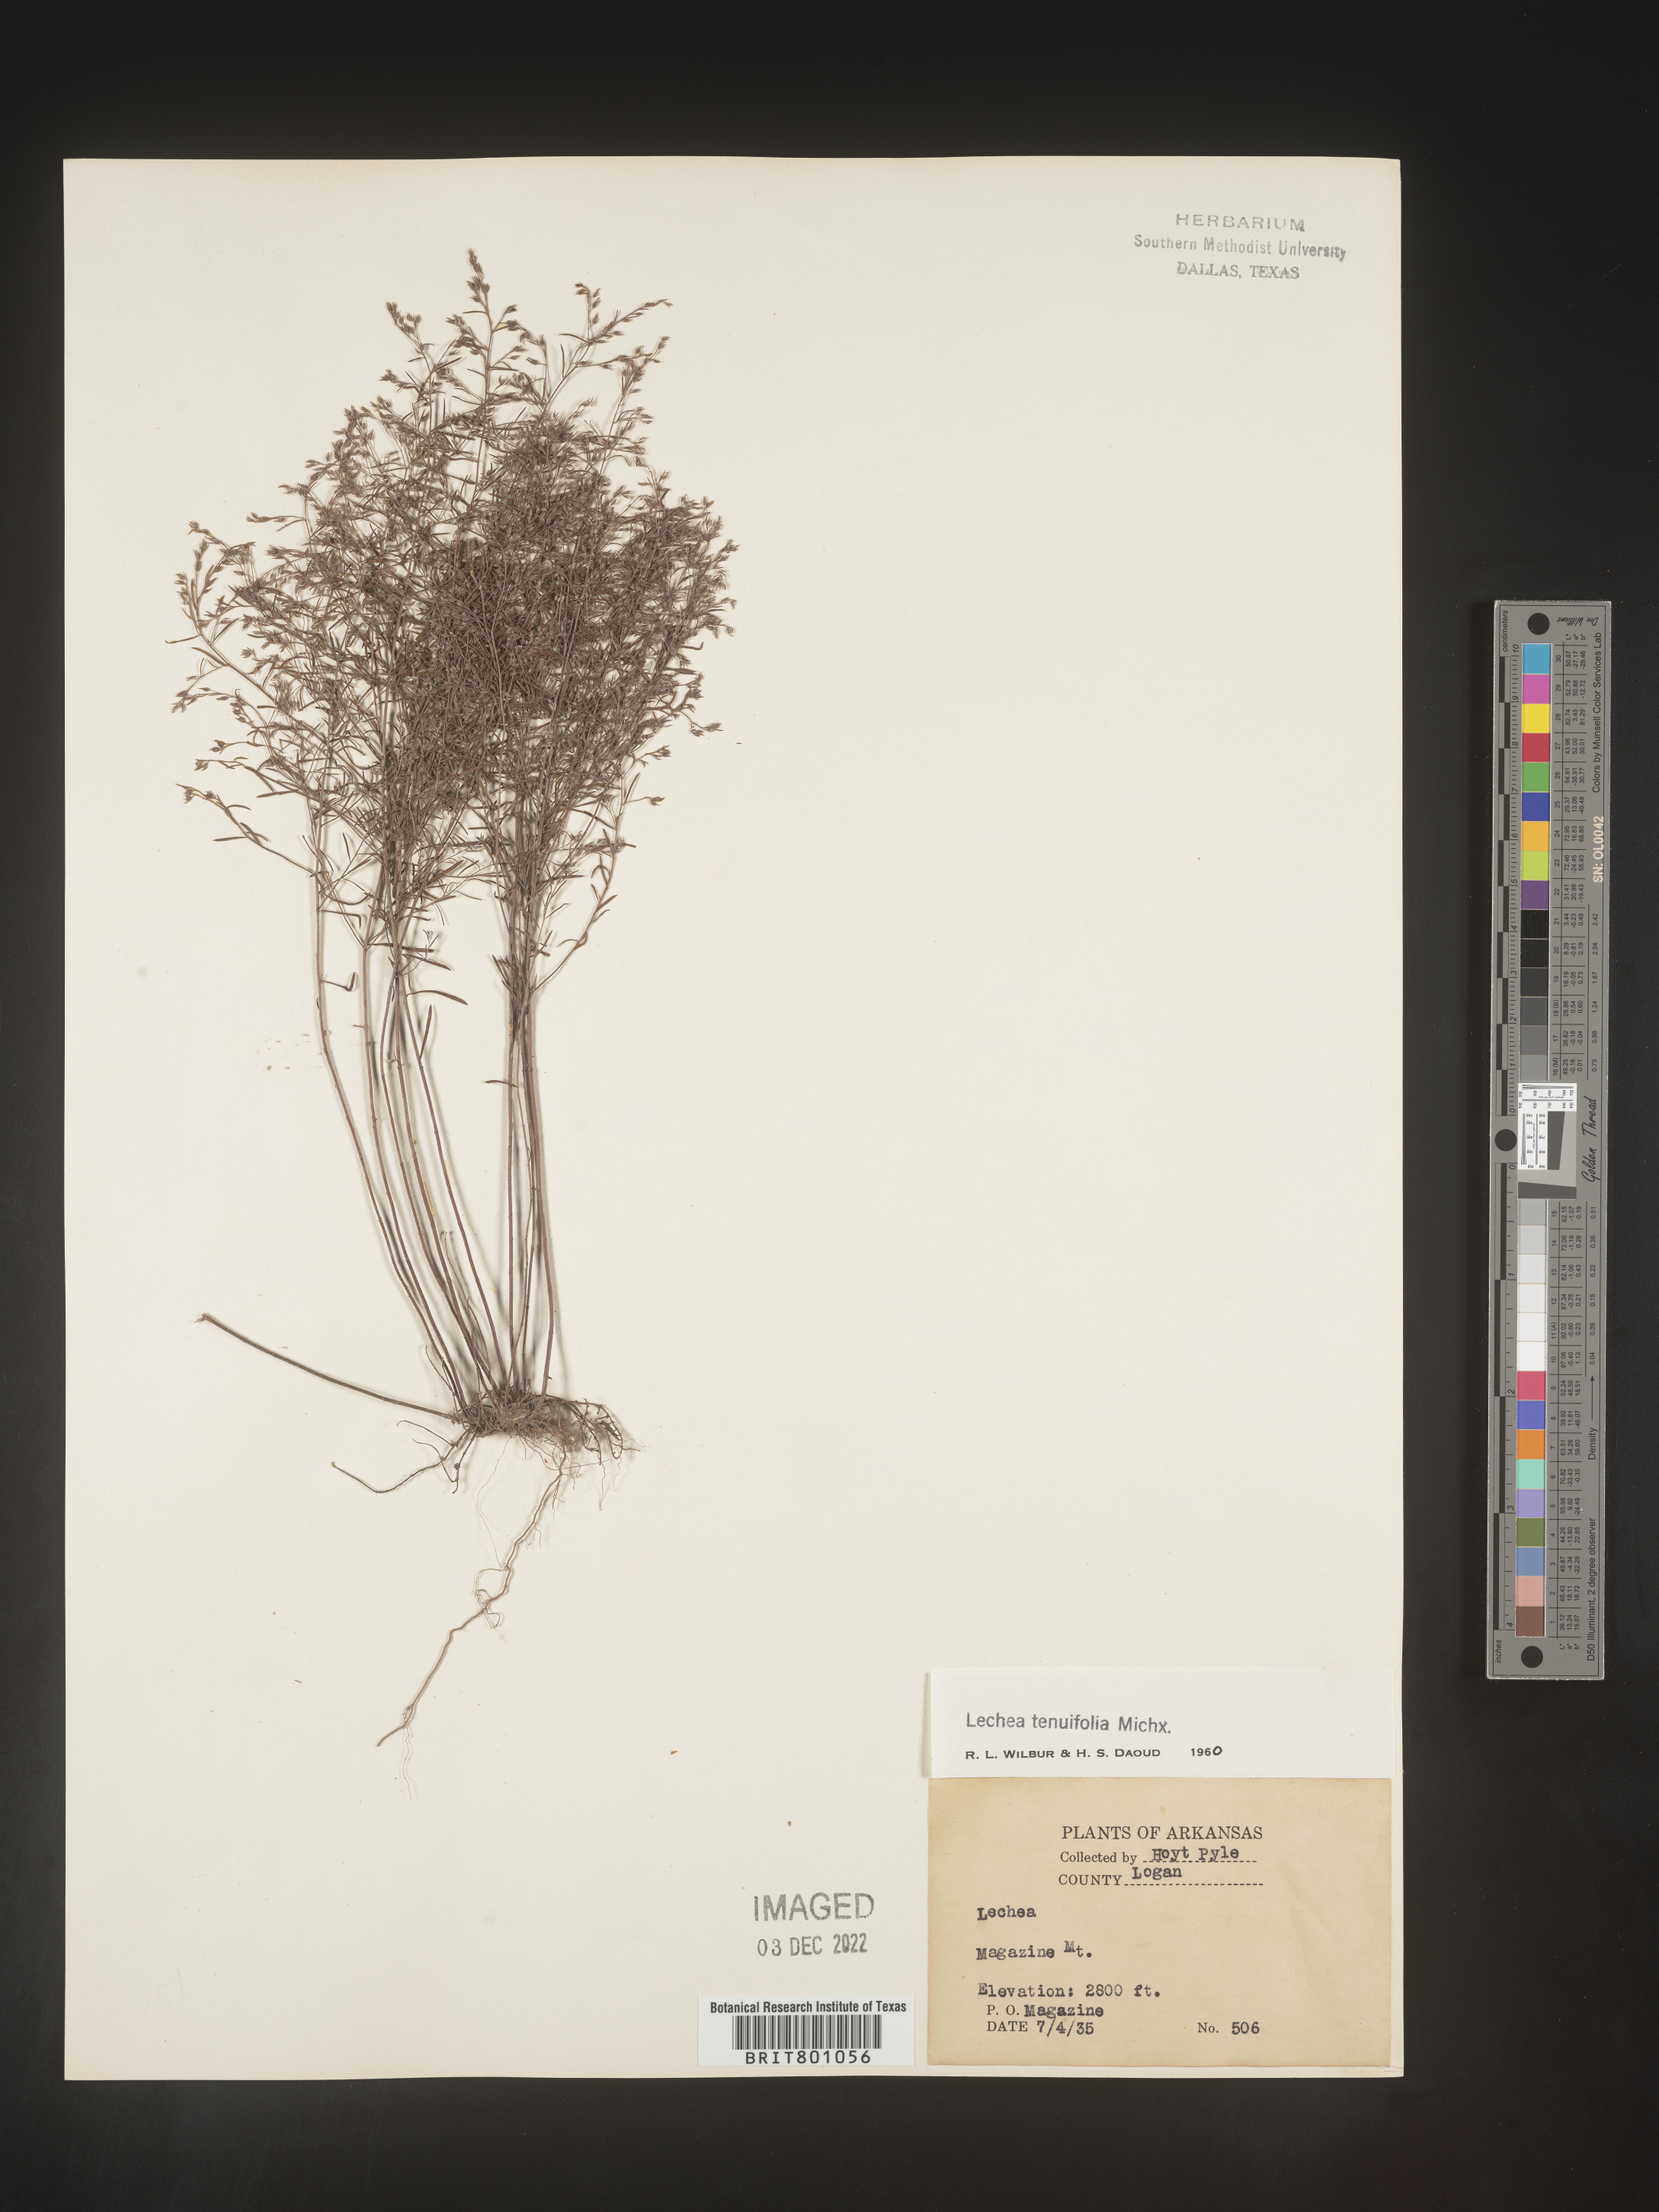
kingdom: Plantae
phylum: Tracheophyta
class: Magnoliopsida
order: Malvales
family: Cistaceae
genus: Lechea
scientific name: Lechea tenuifolia
